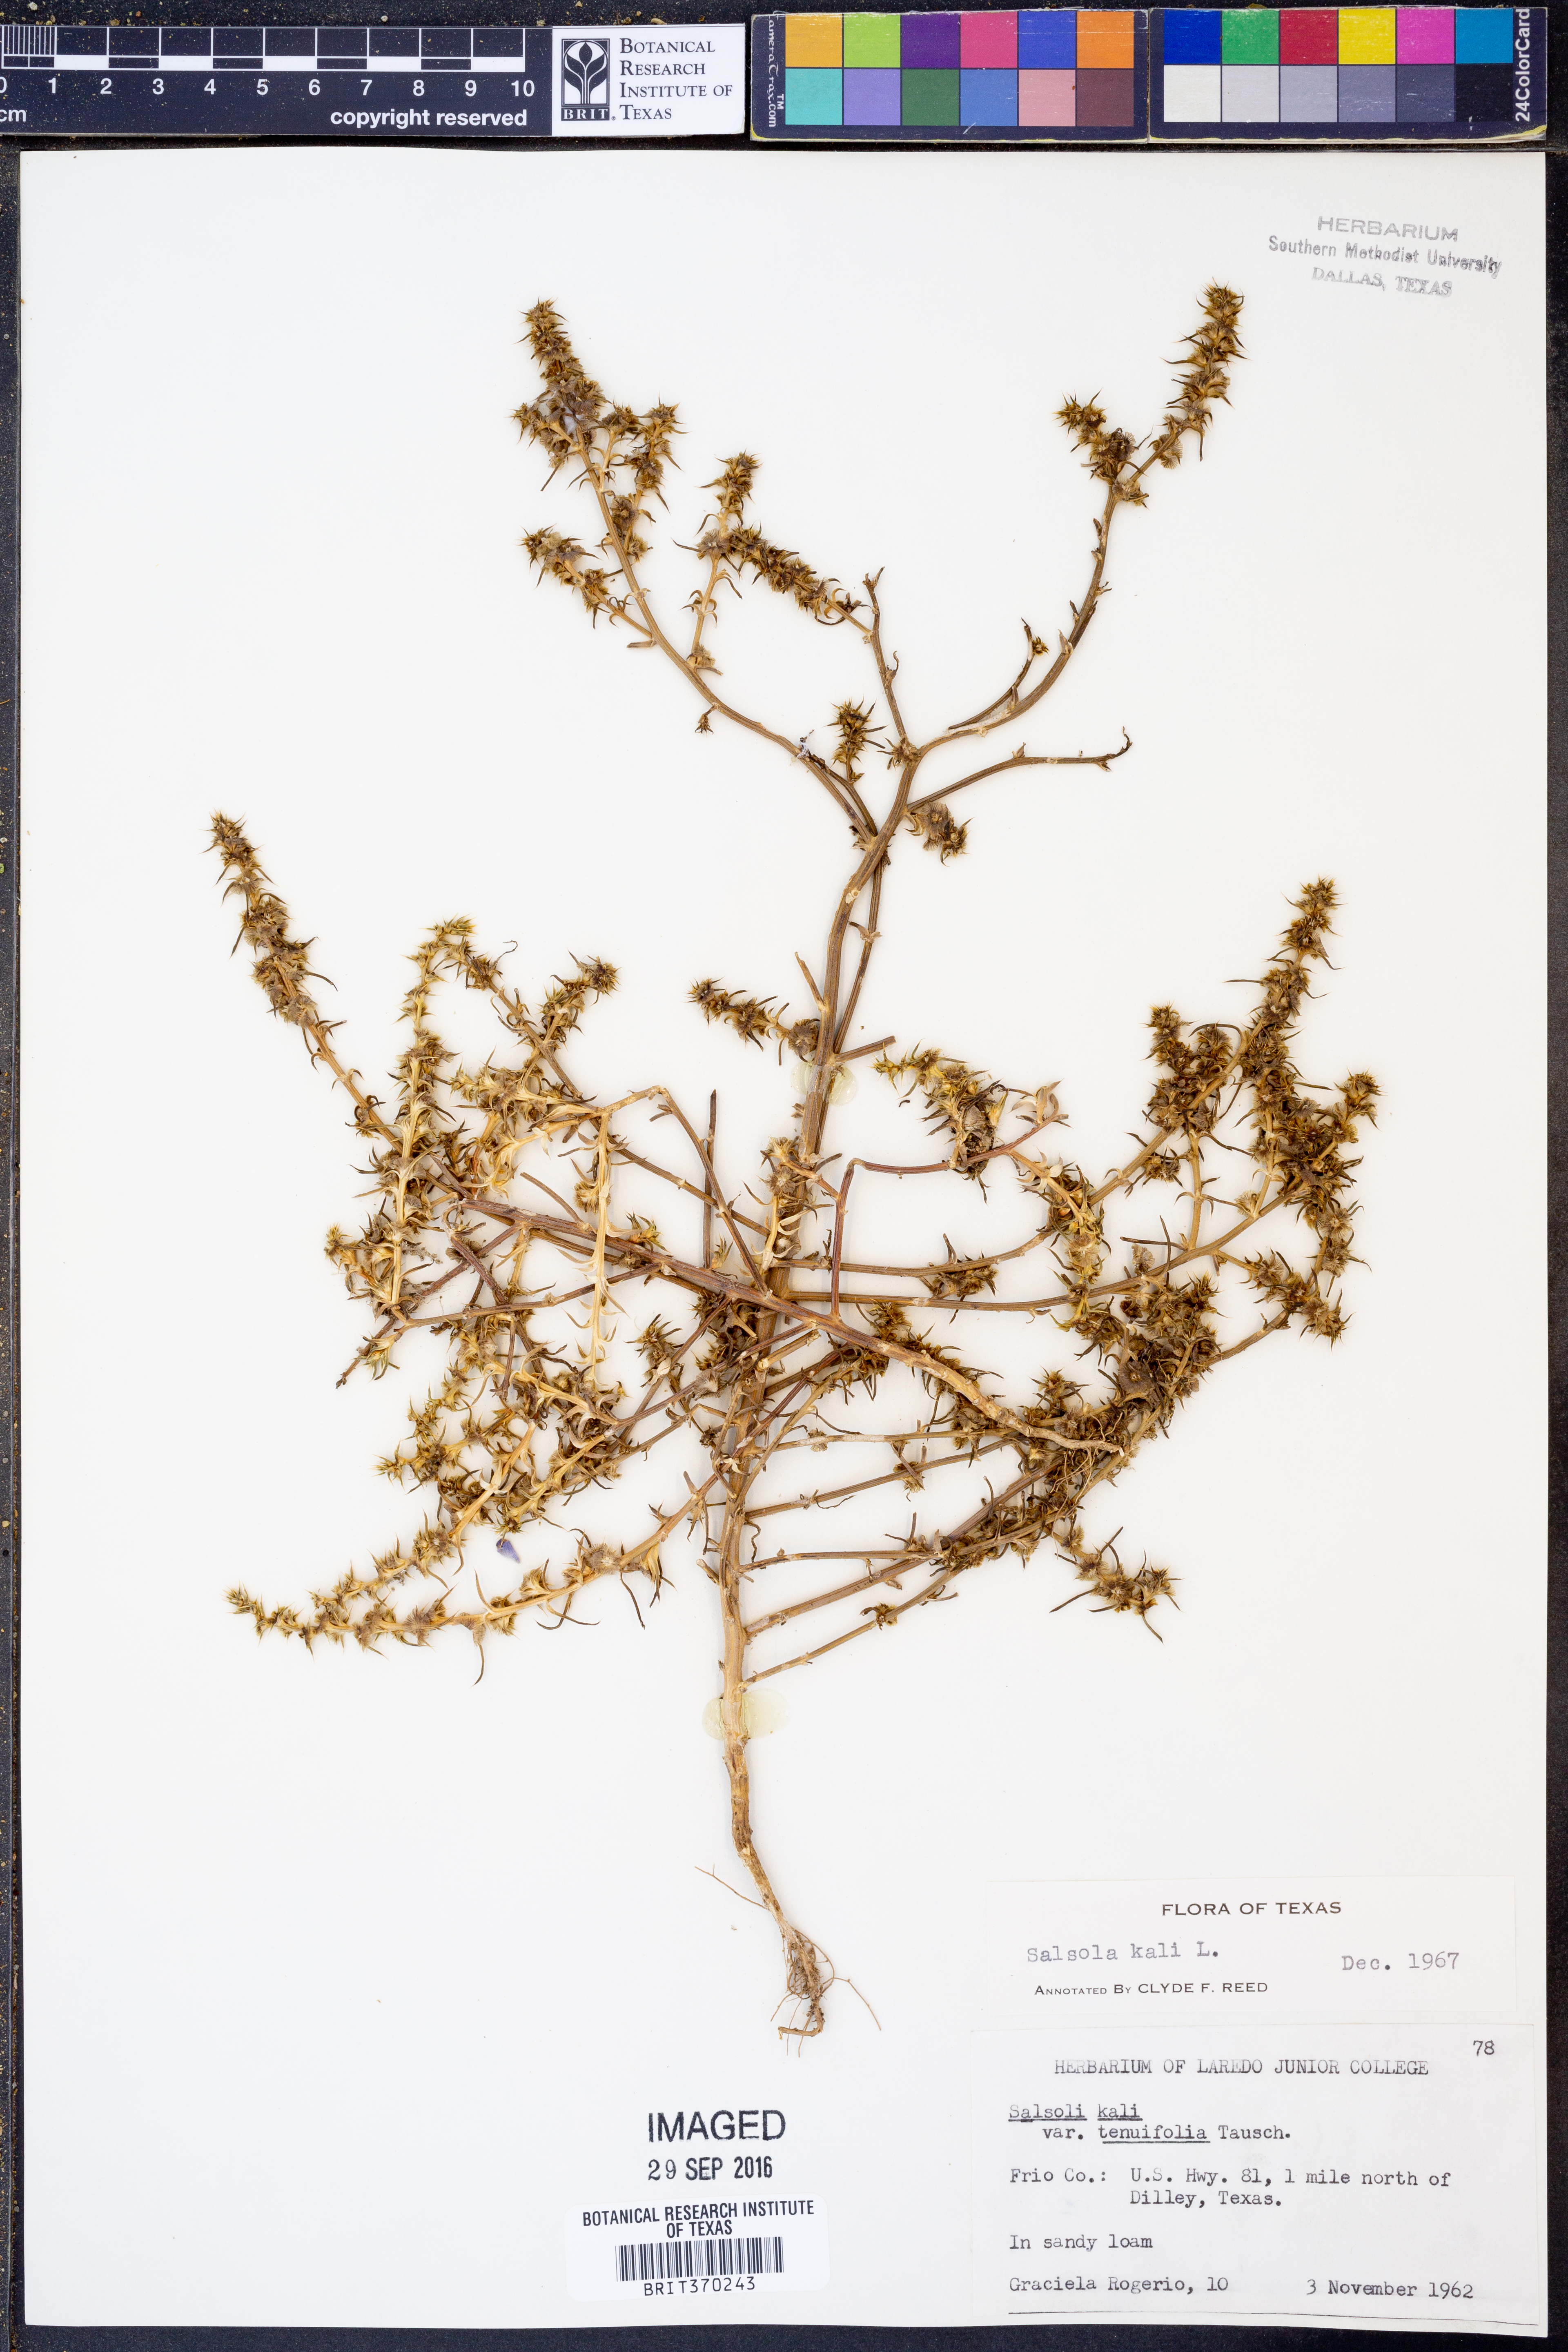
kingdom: Plantae
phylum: Tracheophyta
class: Magnoliopsida
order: Caryophyllales
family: Amaranthaceae
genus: Salsola
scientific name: Salsola tragus
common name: Prickly russian thistle
